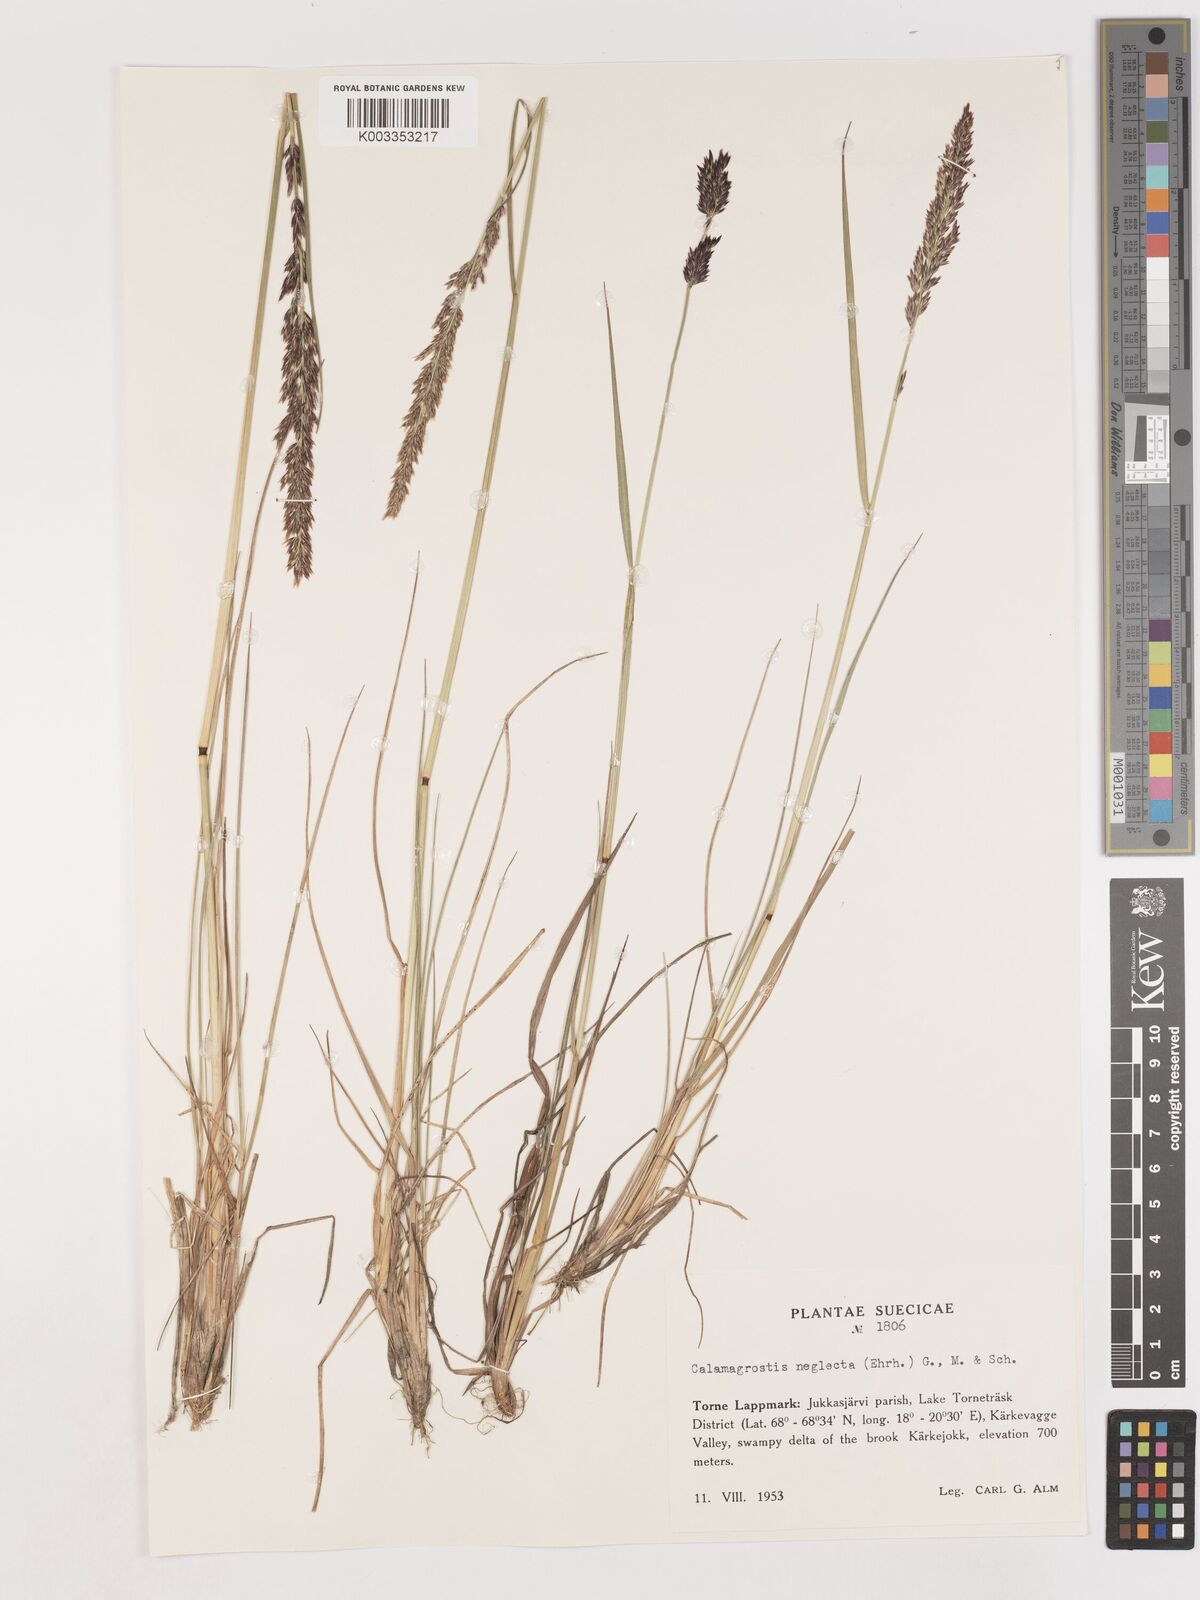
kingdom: Plantae
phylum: Tracheophyta
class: Liliopsida
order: Poales
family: Poaceae
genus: Cinnagrostis
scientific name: Cinnagrostis recta
